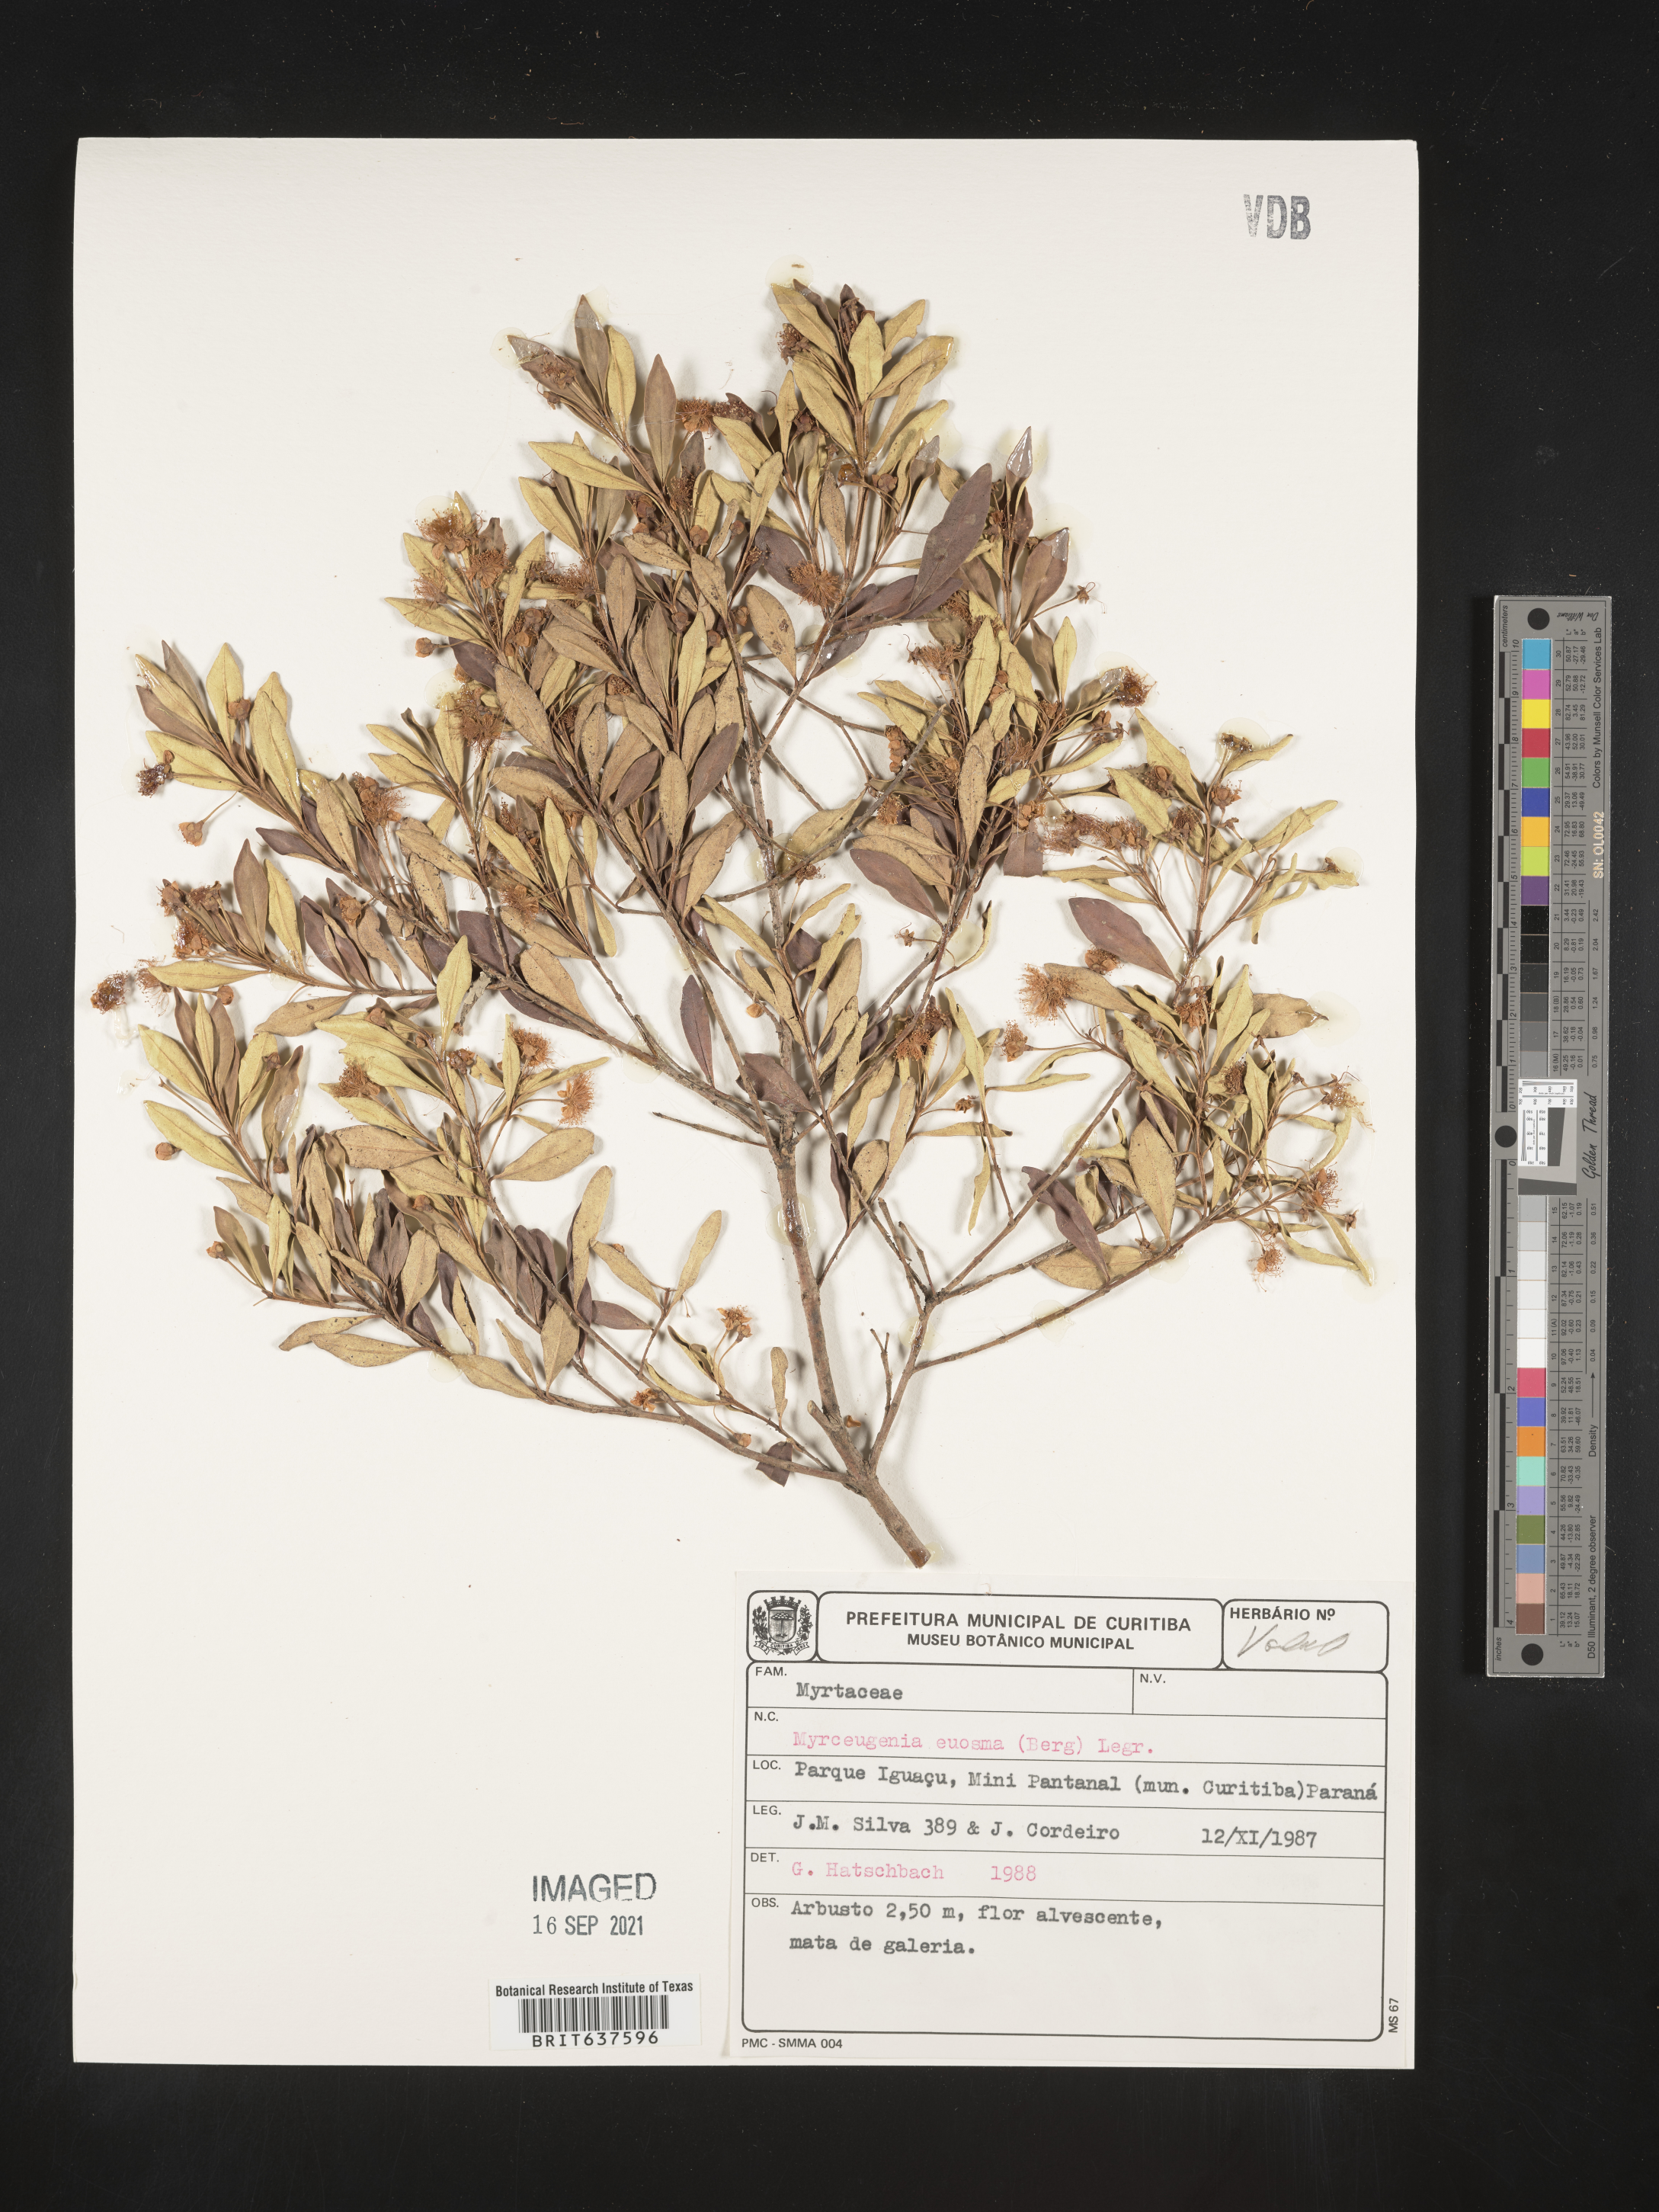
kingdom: Plantae
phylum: Tracheophyta
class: Magnoliopsida
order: Myrtales
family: Myrtaceae
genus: Myrceugenia
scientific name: Myrceugenia
